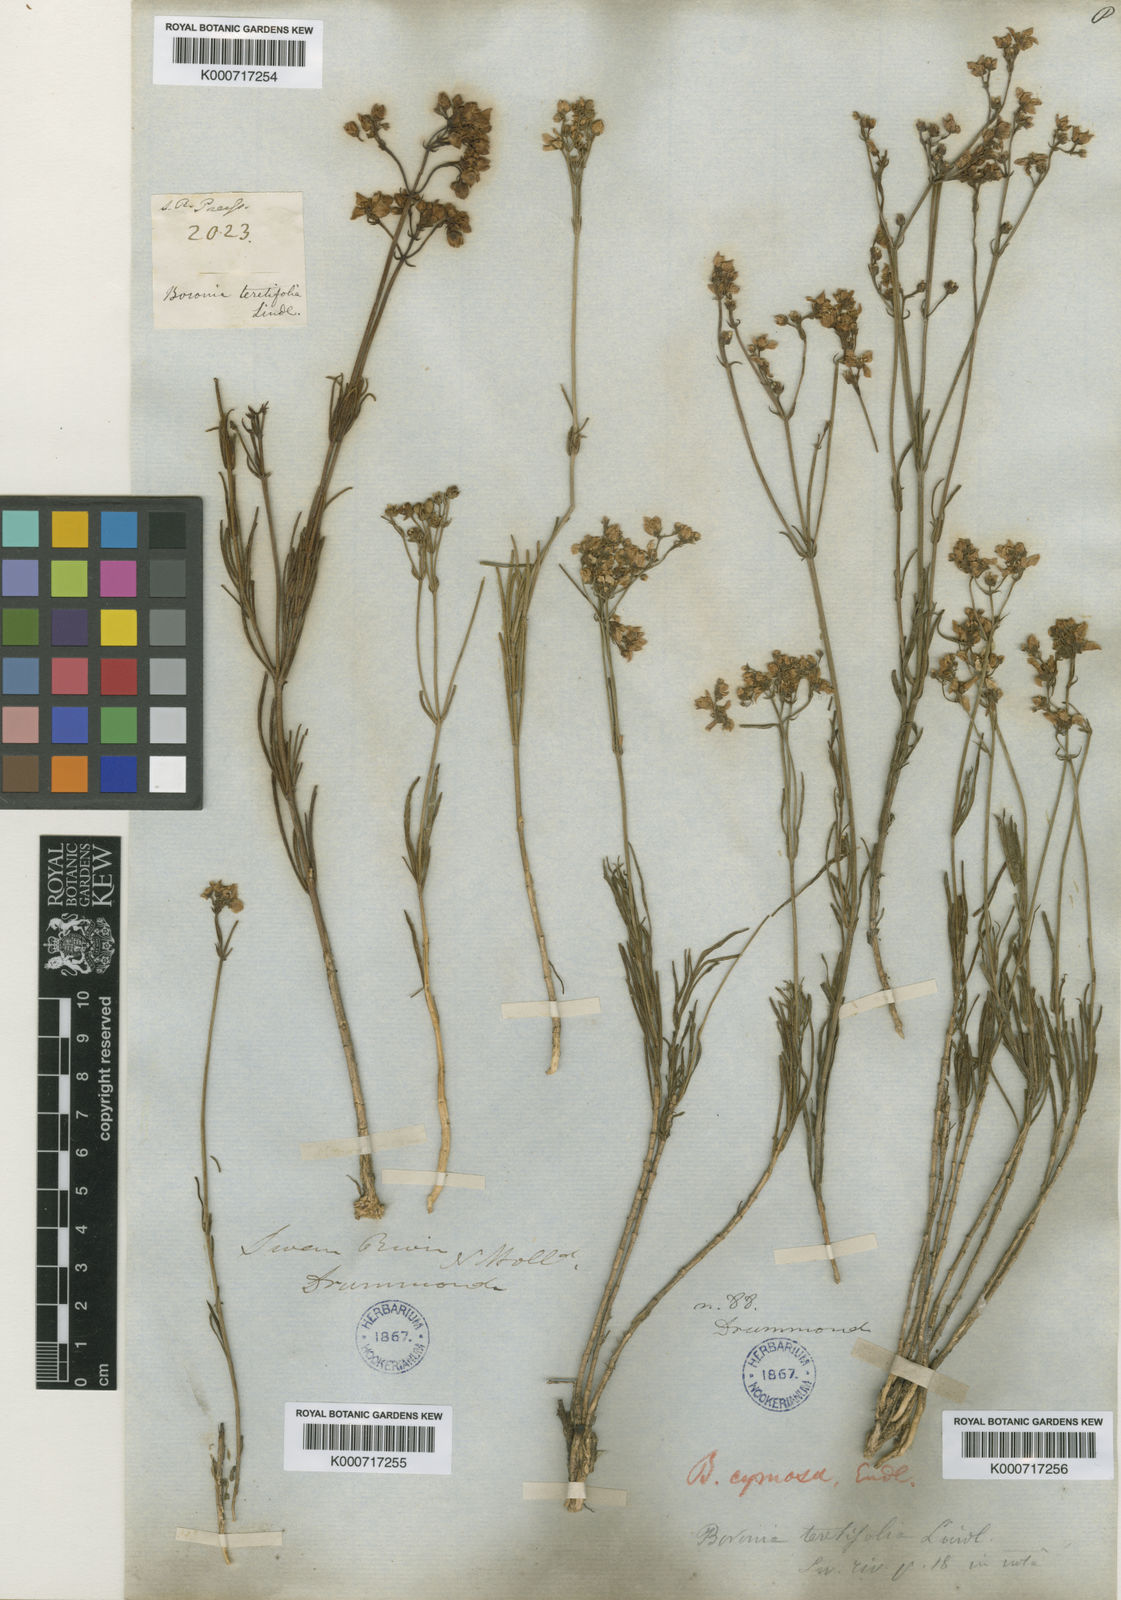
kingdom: Plantae
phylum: Tracheophyta
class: Magnoliopsida
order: Sapindales
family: Rutaceae
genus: Boronia
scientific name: Boronia cymosa
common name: Granite boronia
